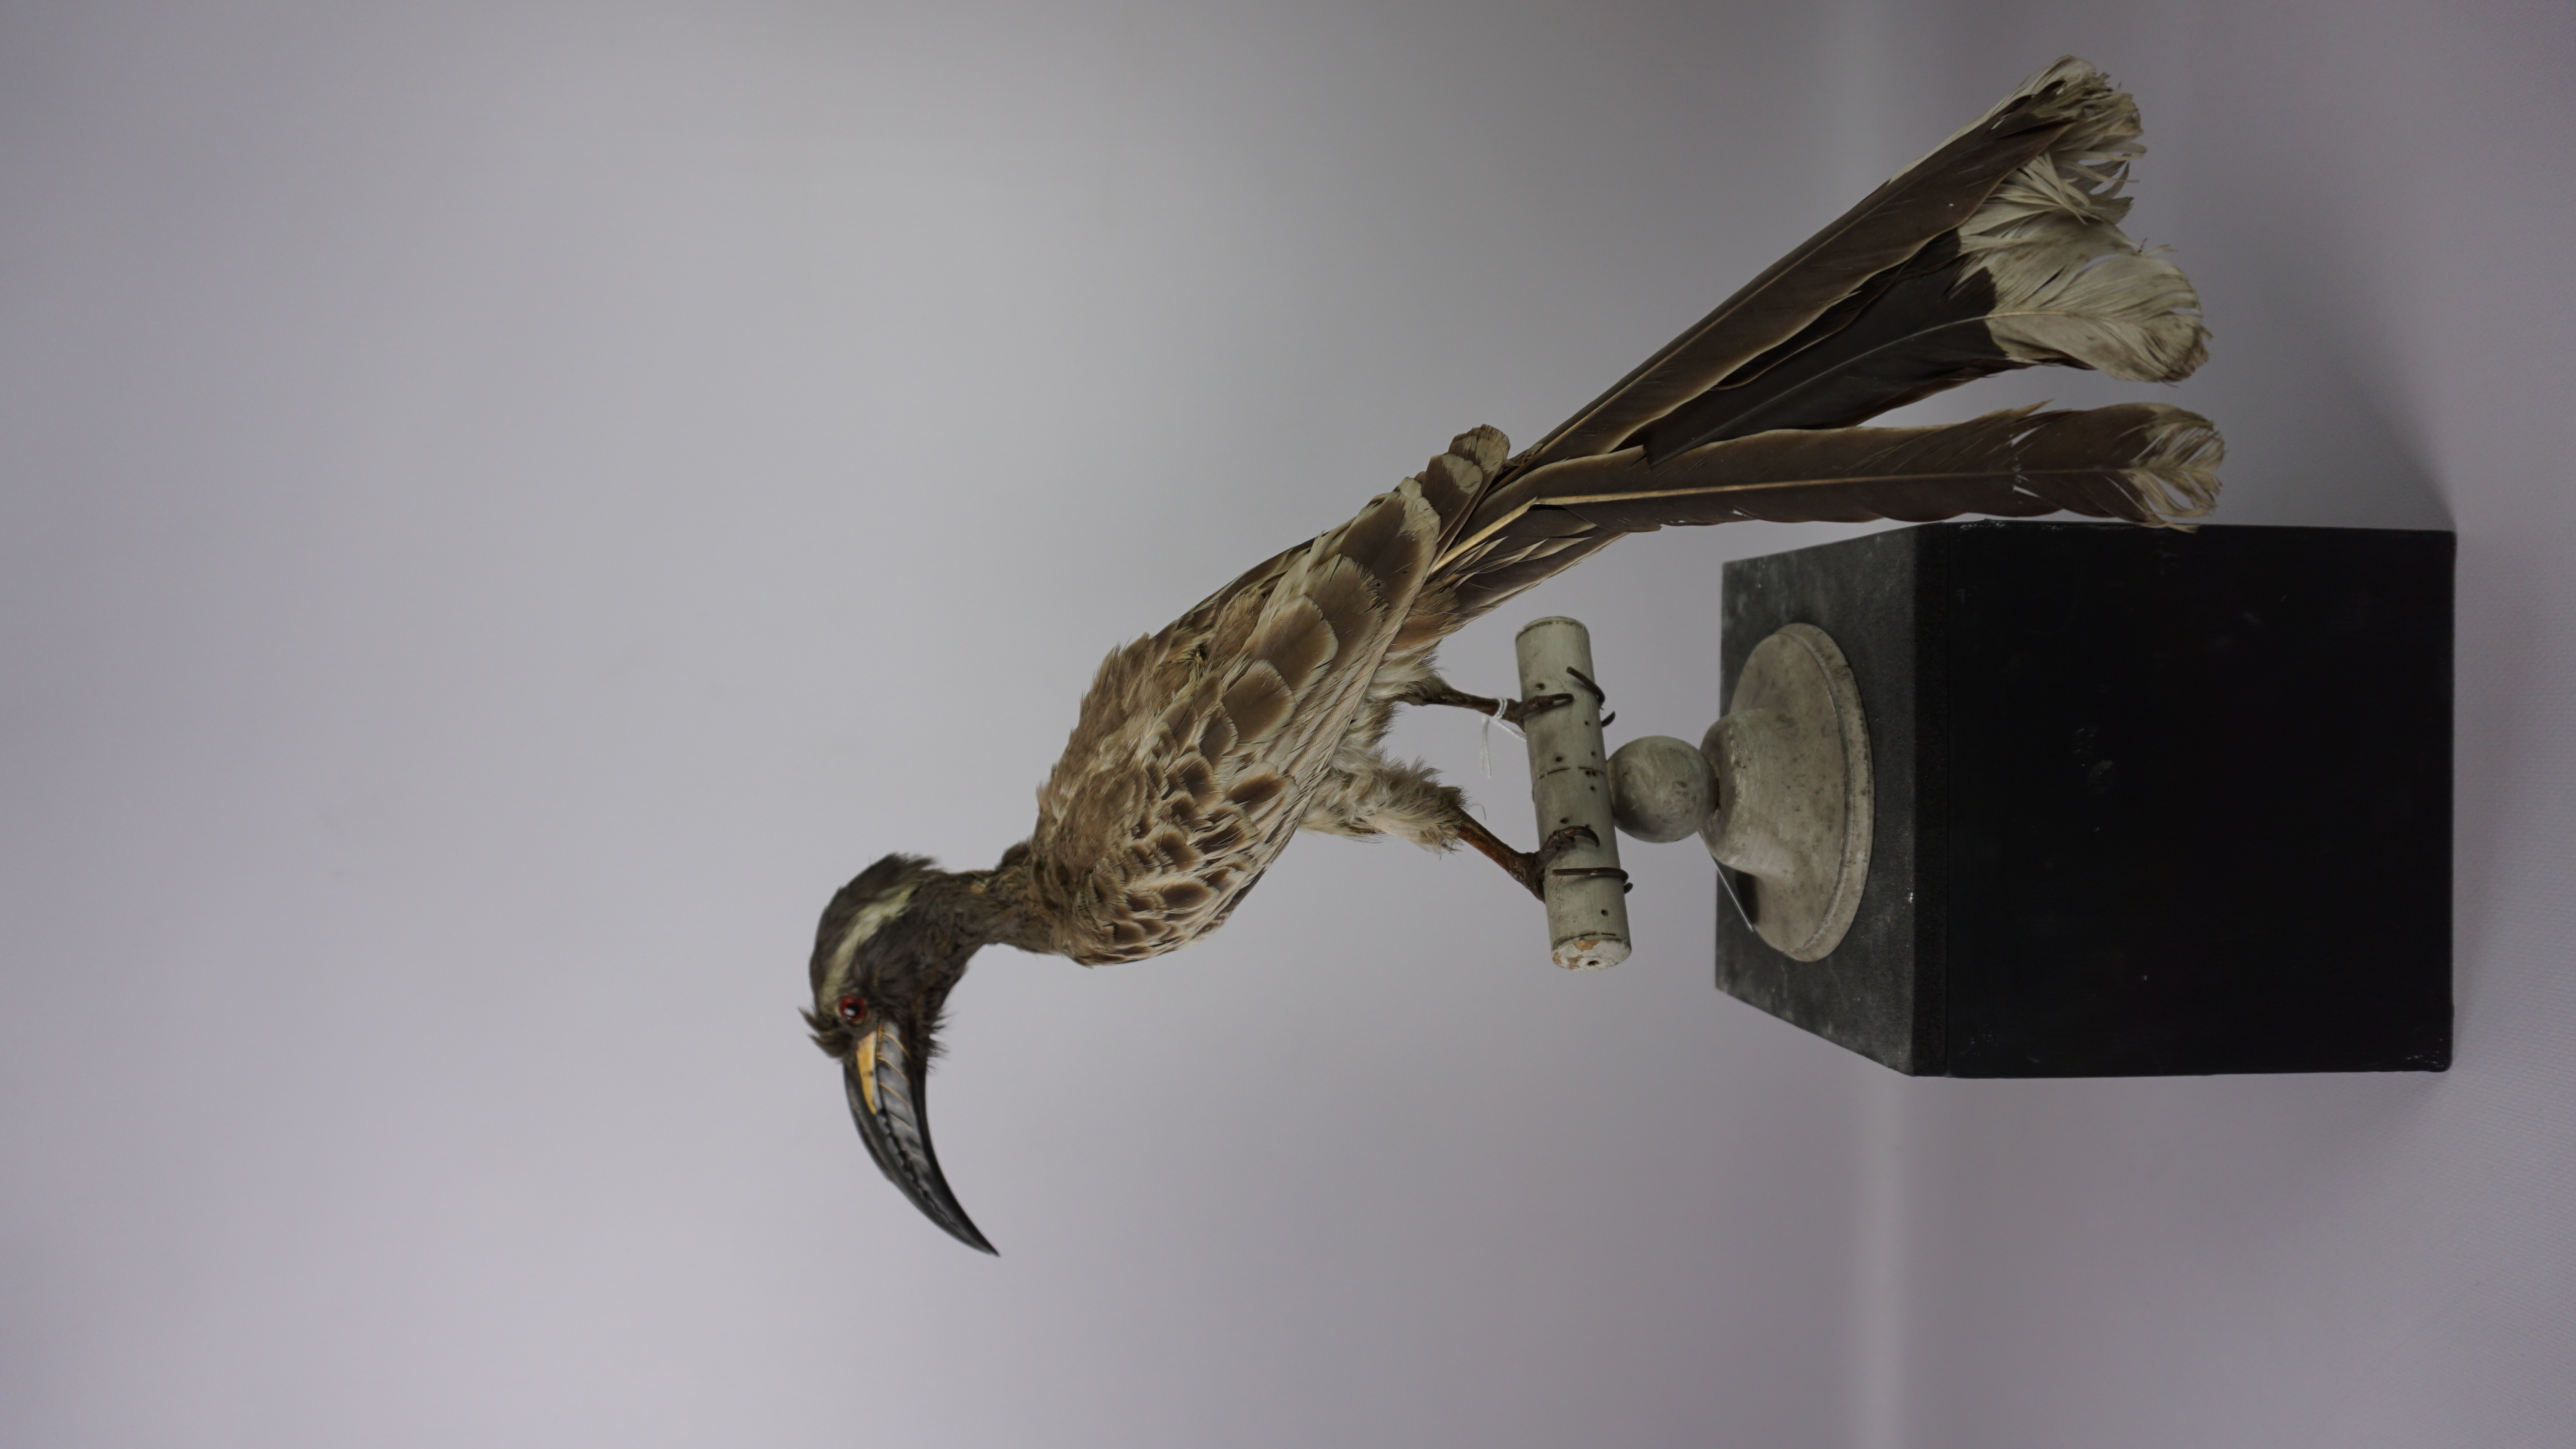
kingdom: Animalia
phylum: Chordata
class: Aves
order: Bucerotiformes
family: Bucerotidae
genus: Lophoceros
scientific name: Lophoceros nasutus
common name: African grey hornbill
